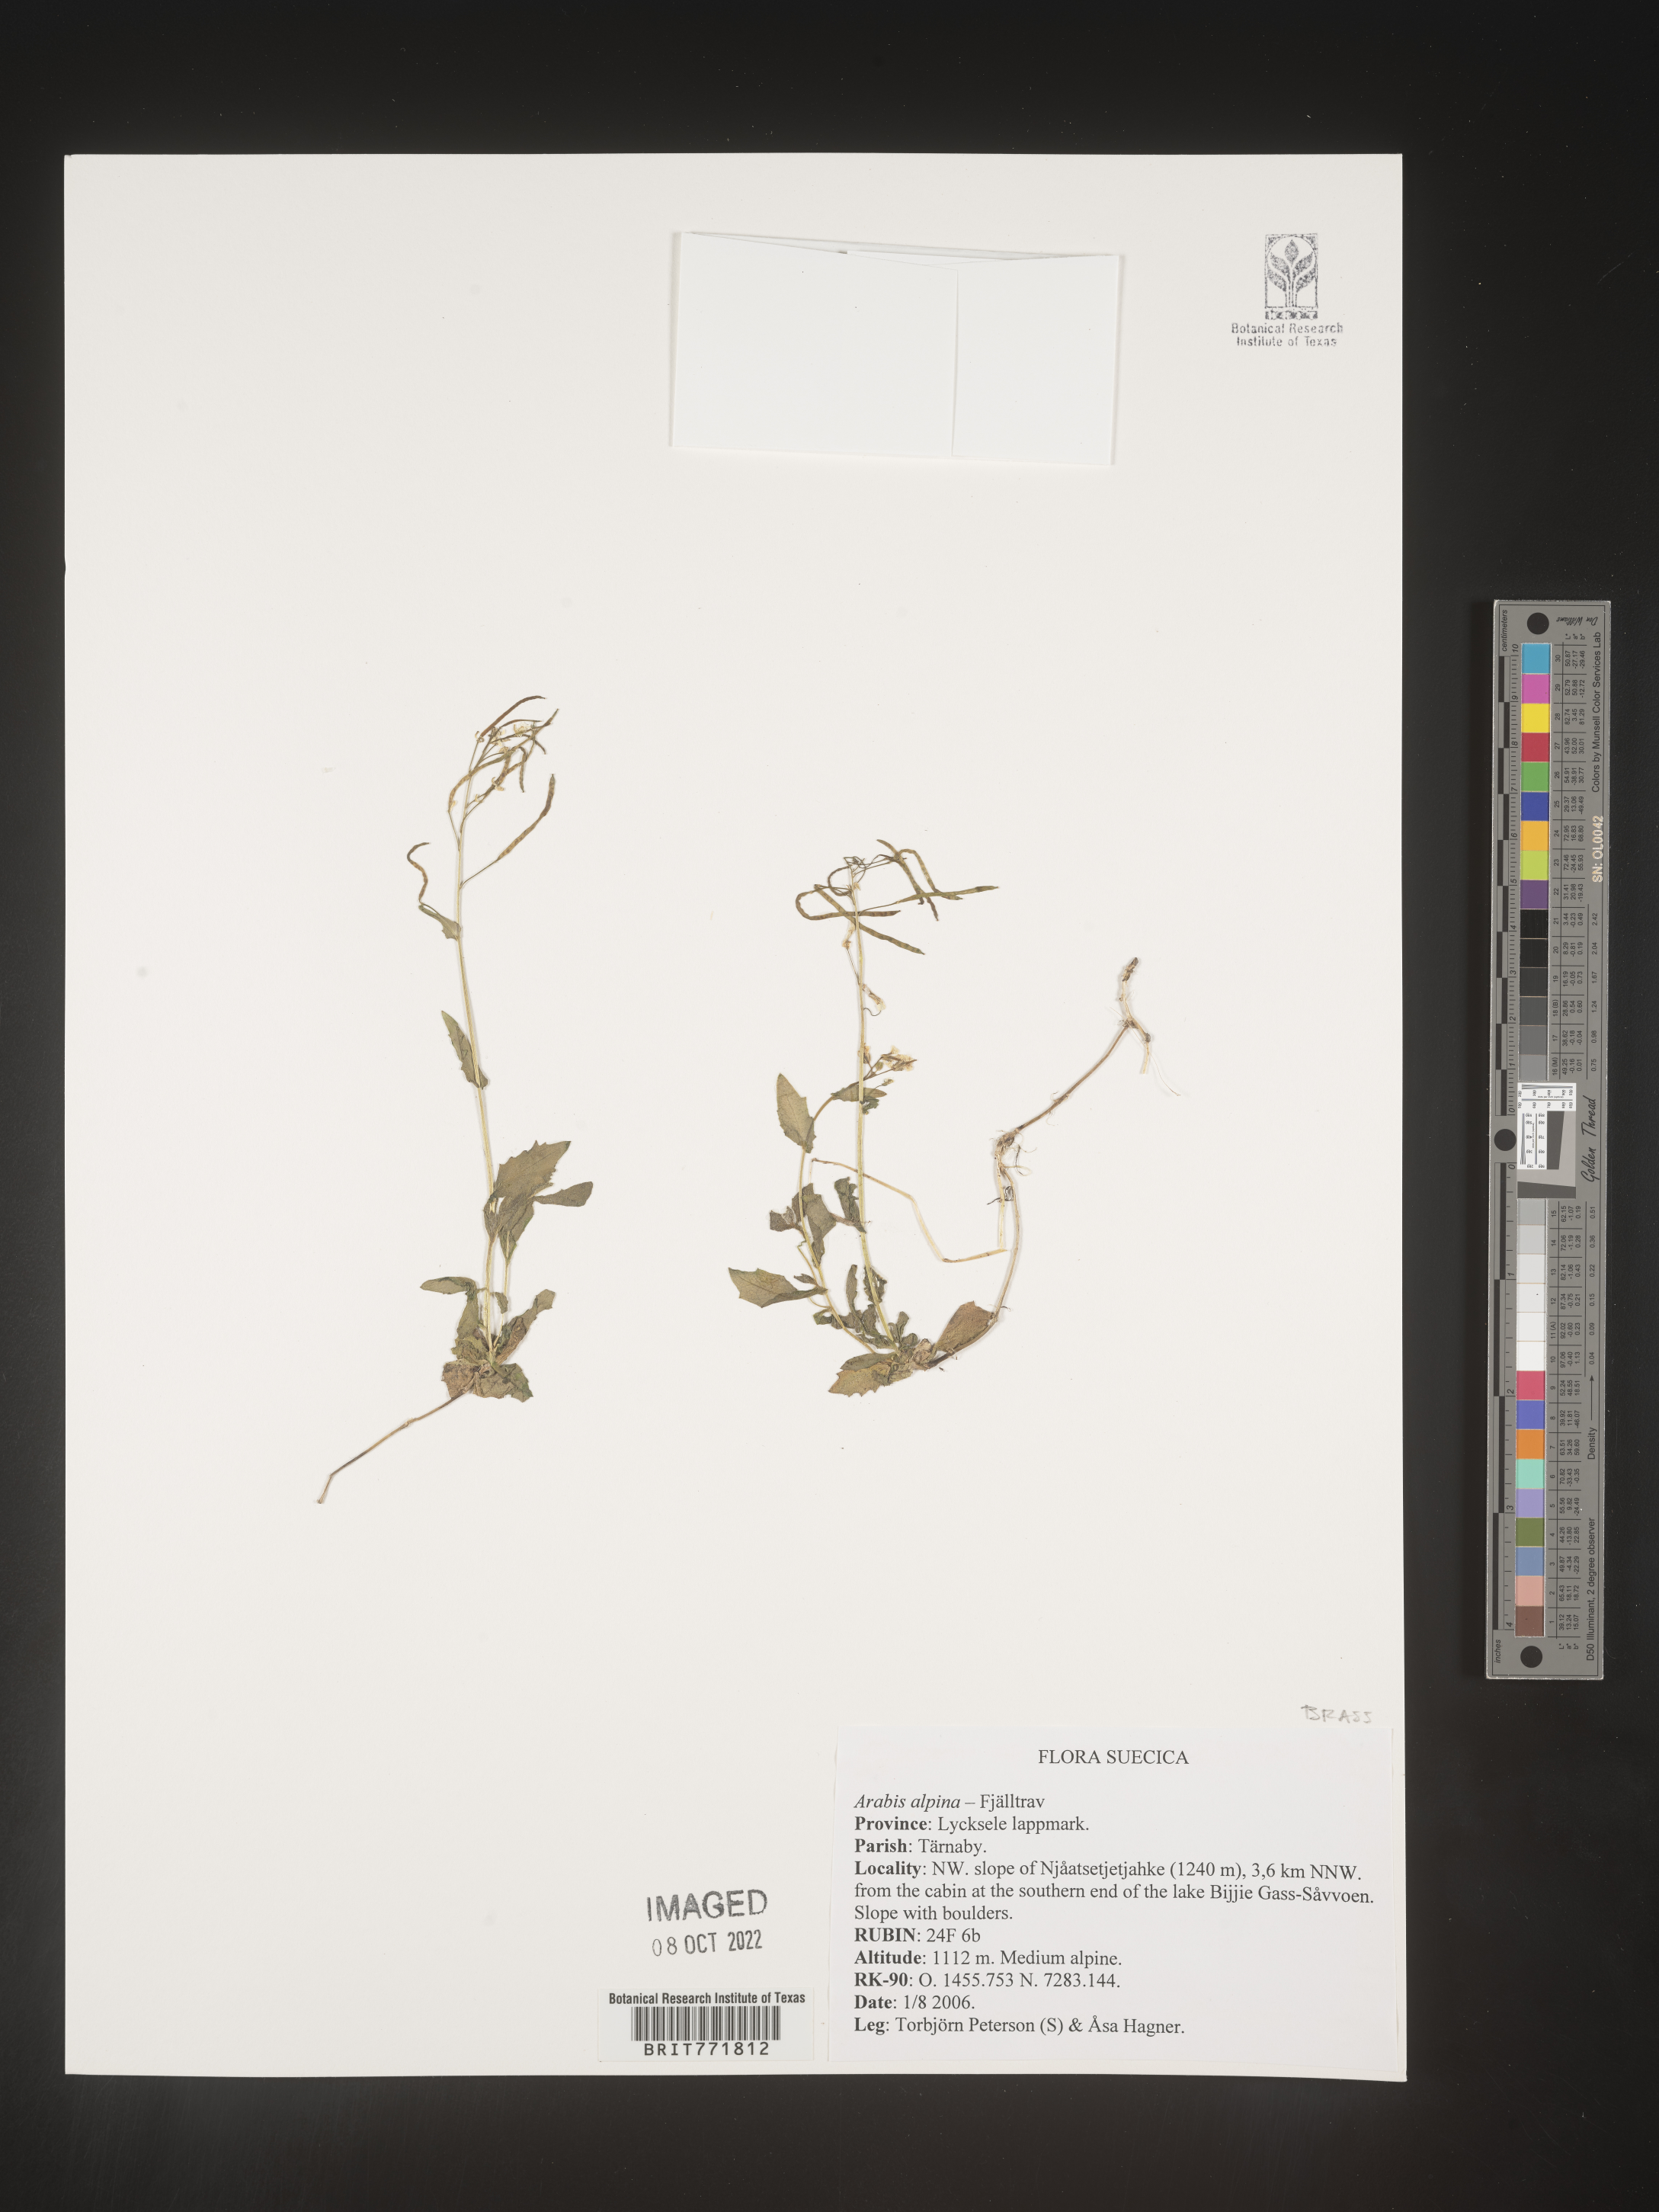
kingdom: Plantae
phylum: Tracheophyta
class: Magnoliopsida
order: Brassicales
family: Brassicaceae
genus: Arabis
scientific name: Arabis
